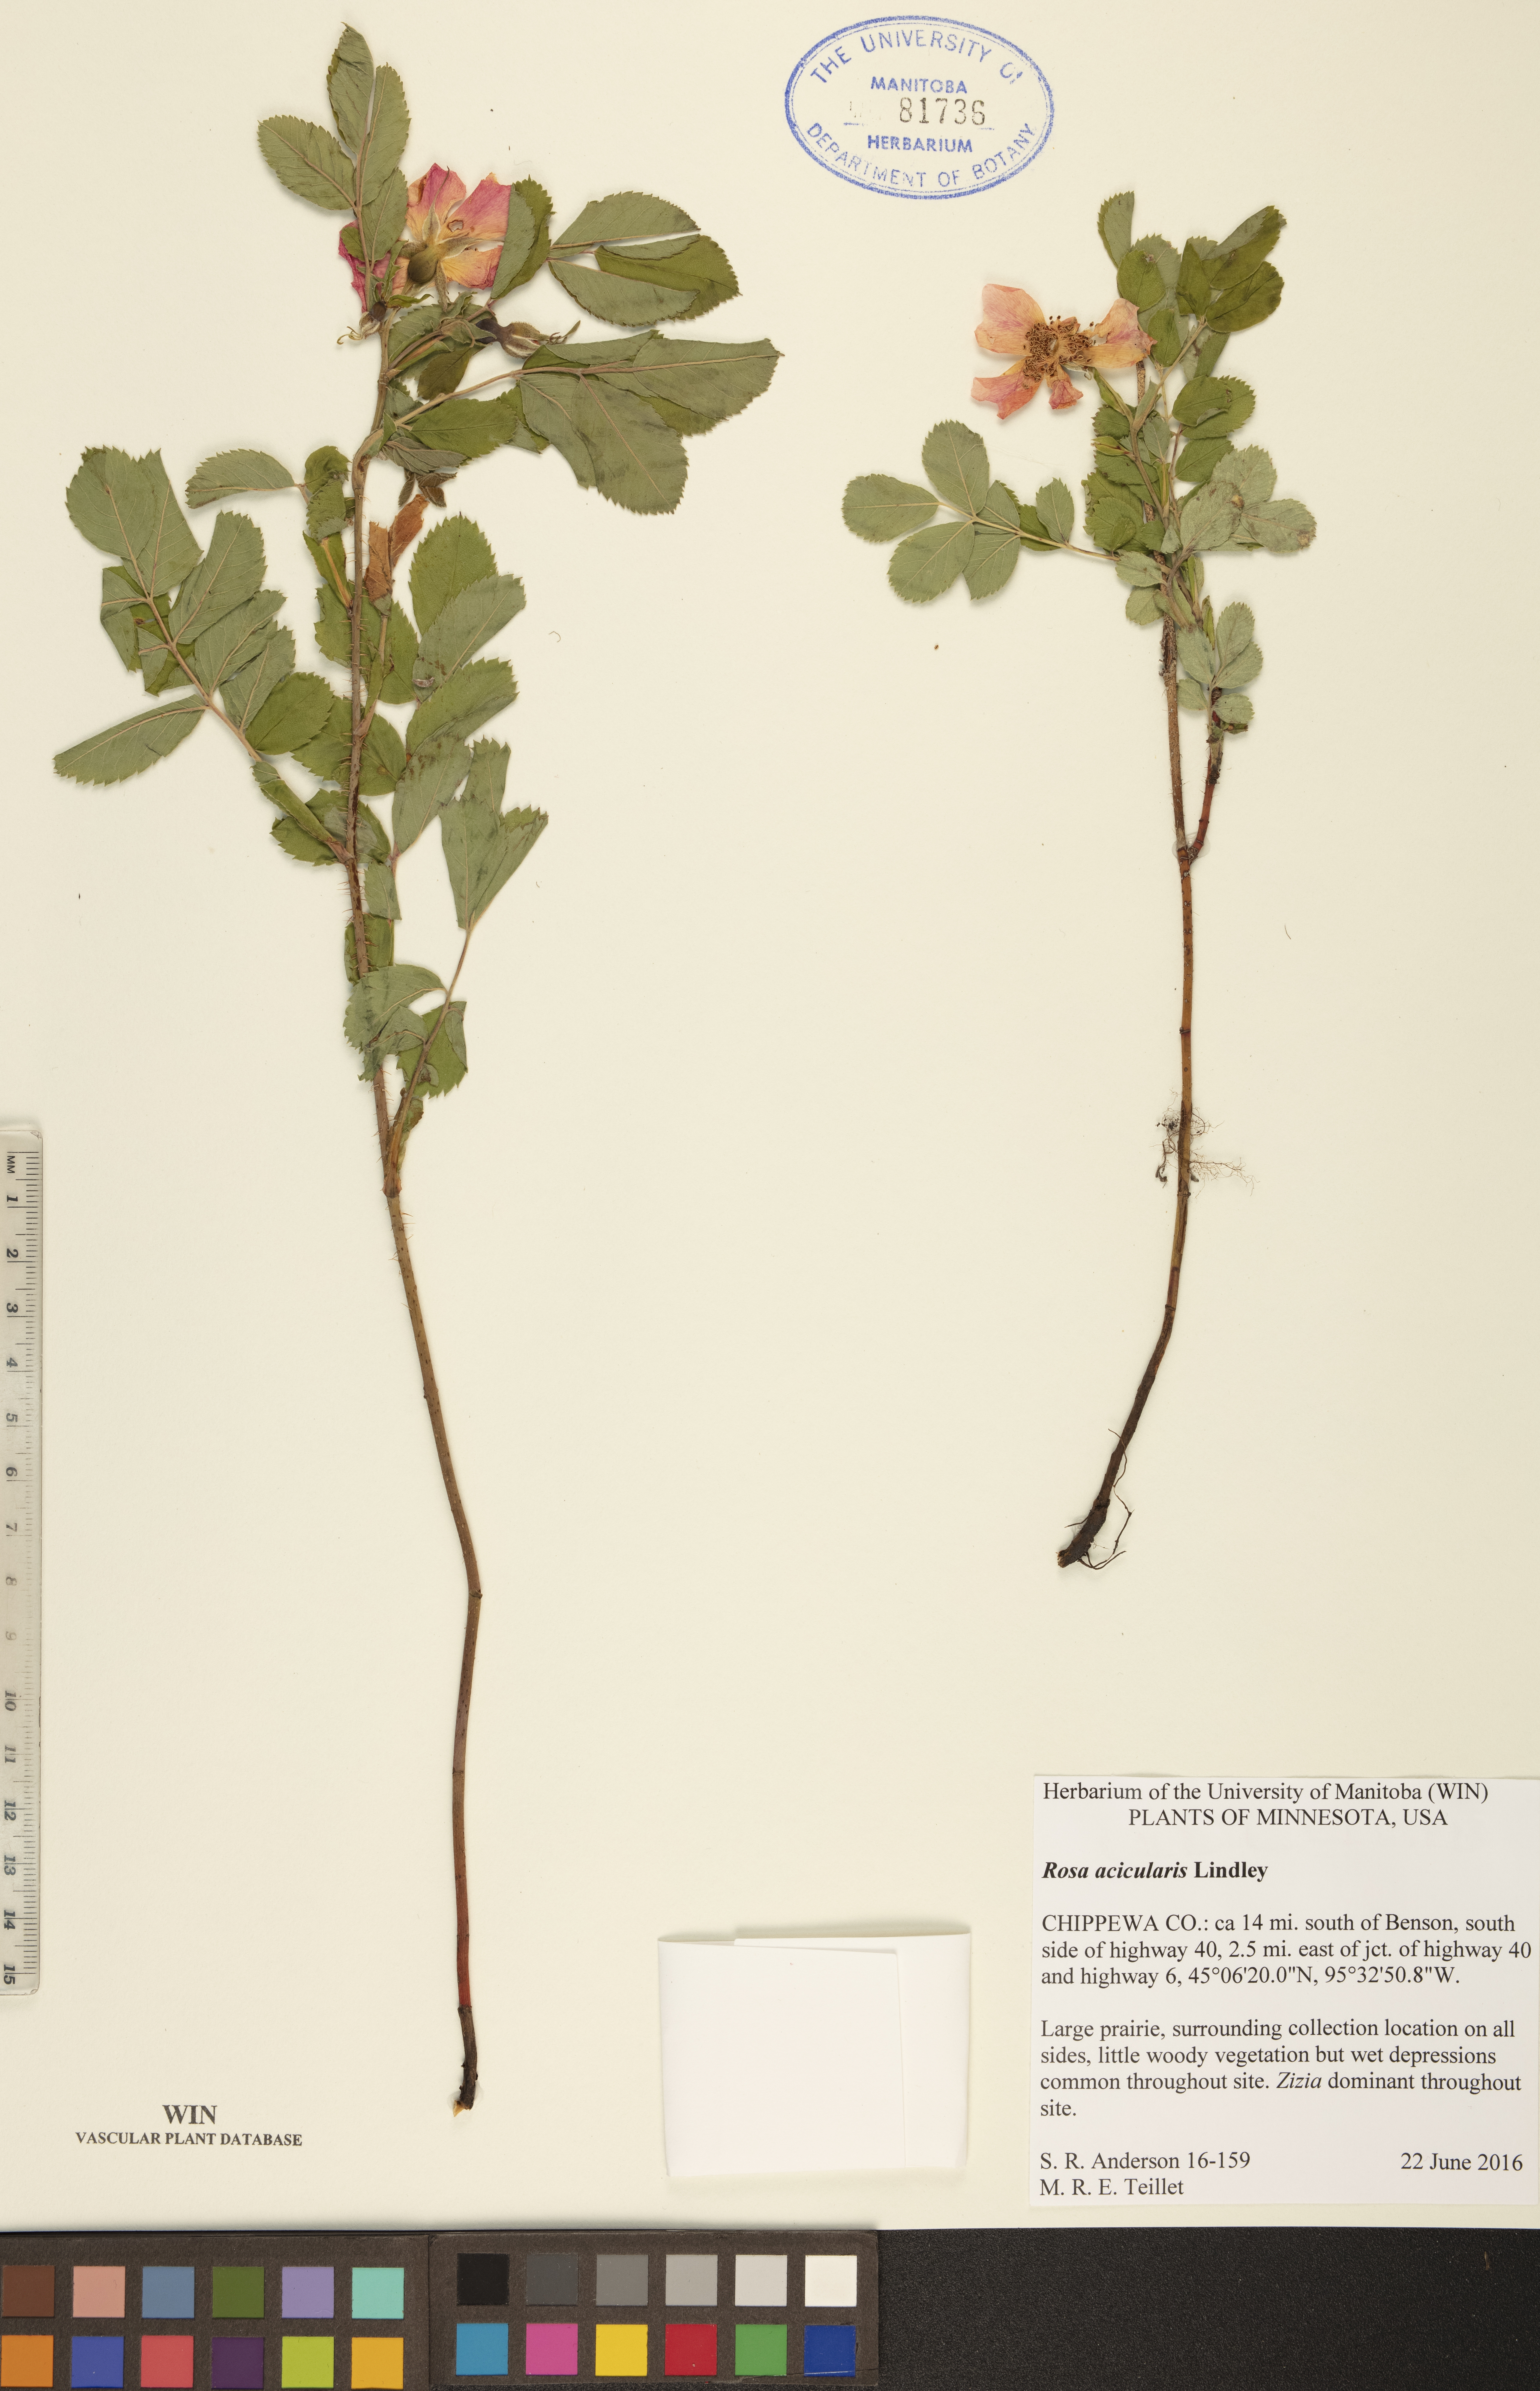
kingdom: Plantae
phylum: Tracheophyta
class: Magnoliopsida
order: Rosales
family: Rosaceae
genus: Rosa
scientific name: Rosa acicularis
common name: Prickly rose
